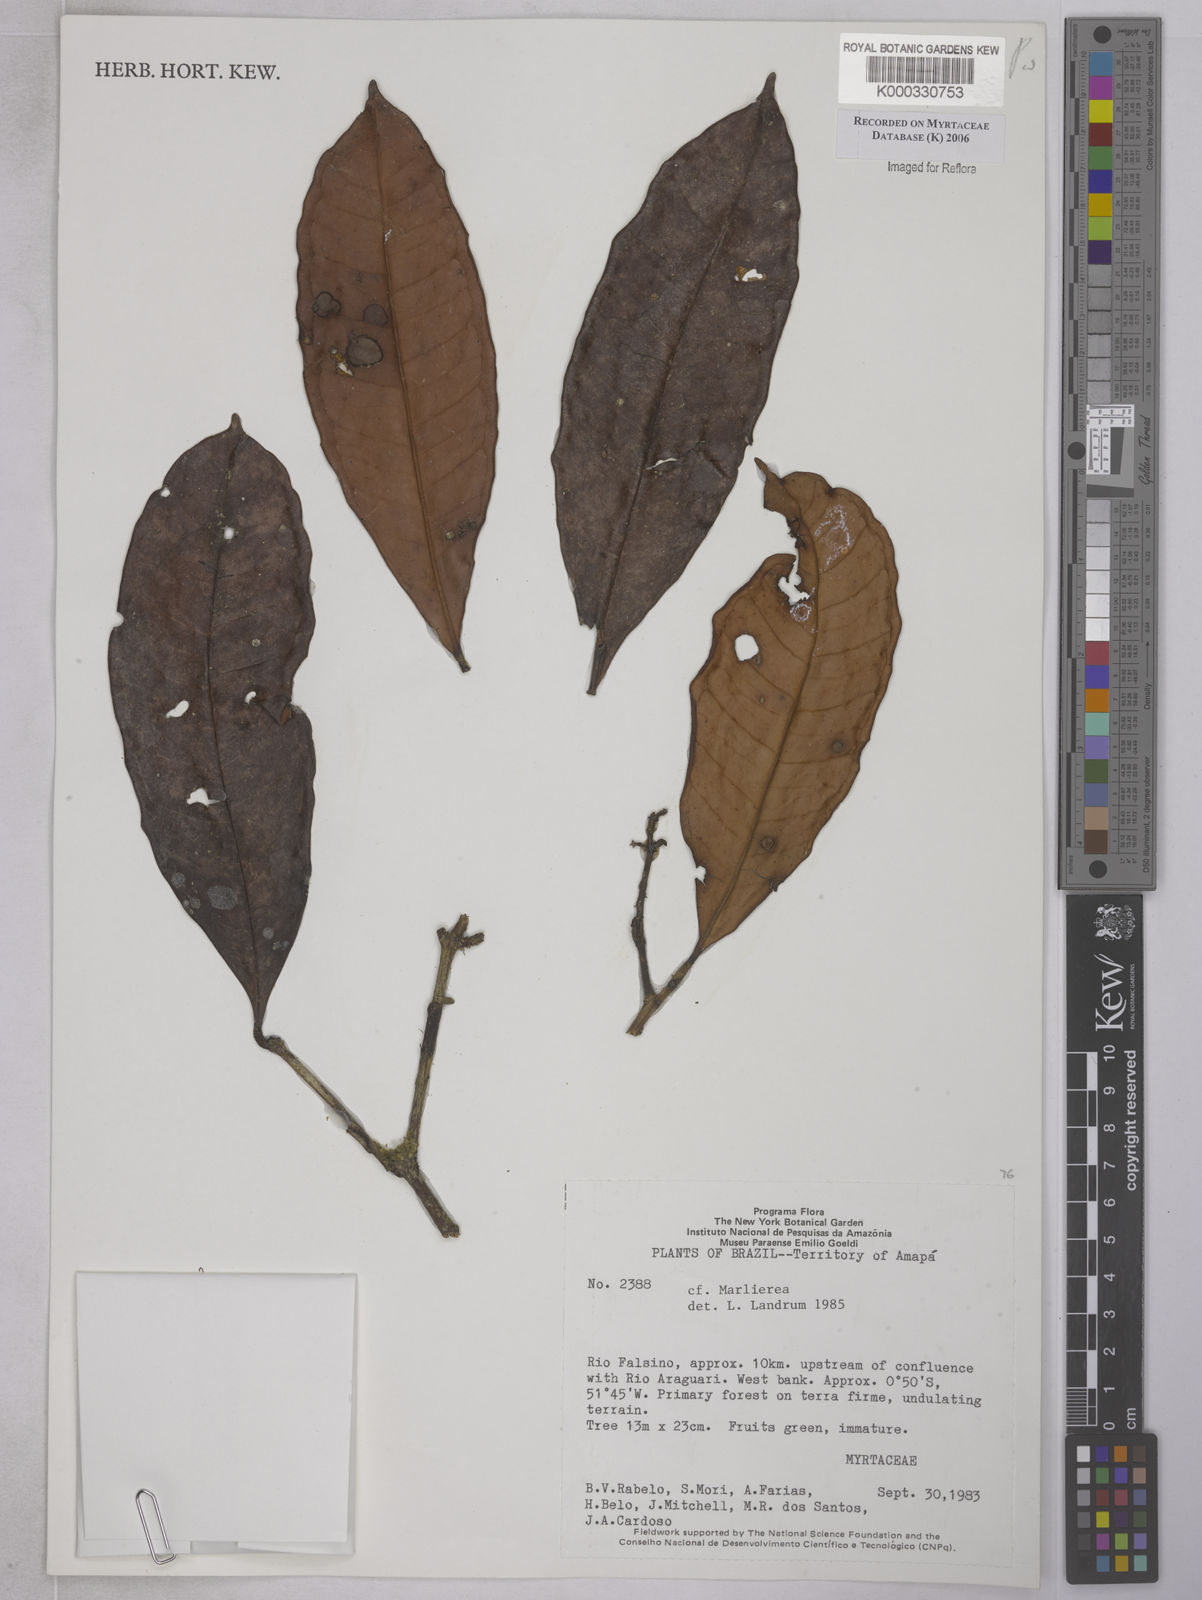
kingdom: Plantae
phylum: Tracheophyta
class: Magnoliopsida
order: Myrtales
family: Myrtaceae
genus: Marlierea
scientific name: Marlierea
